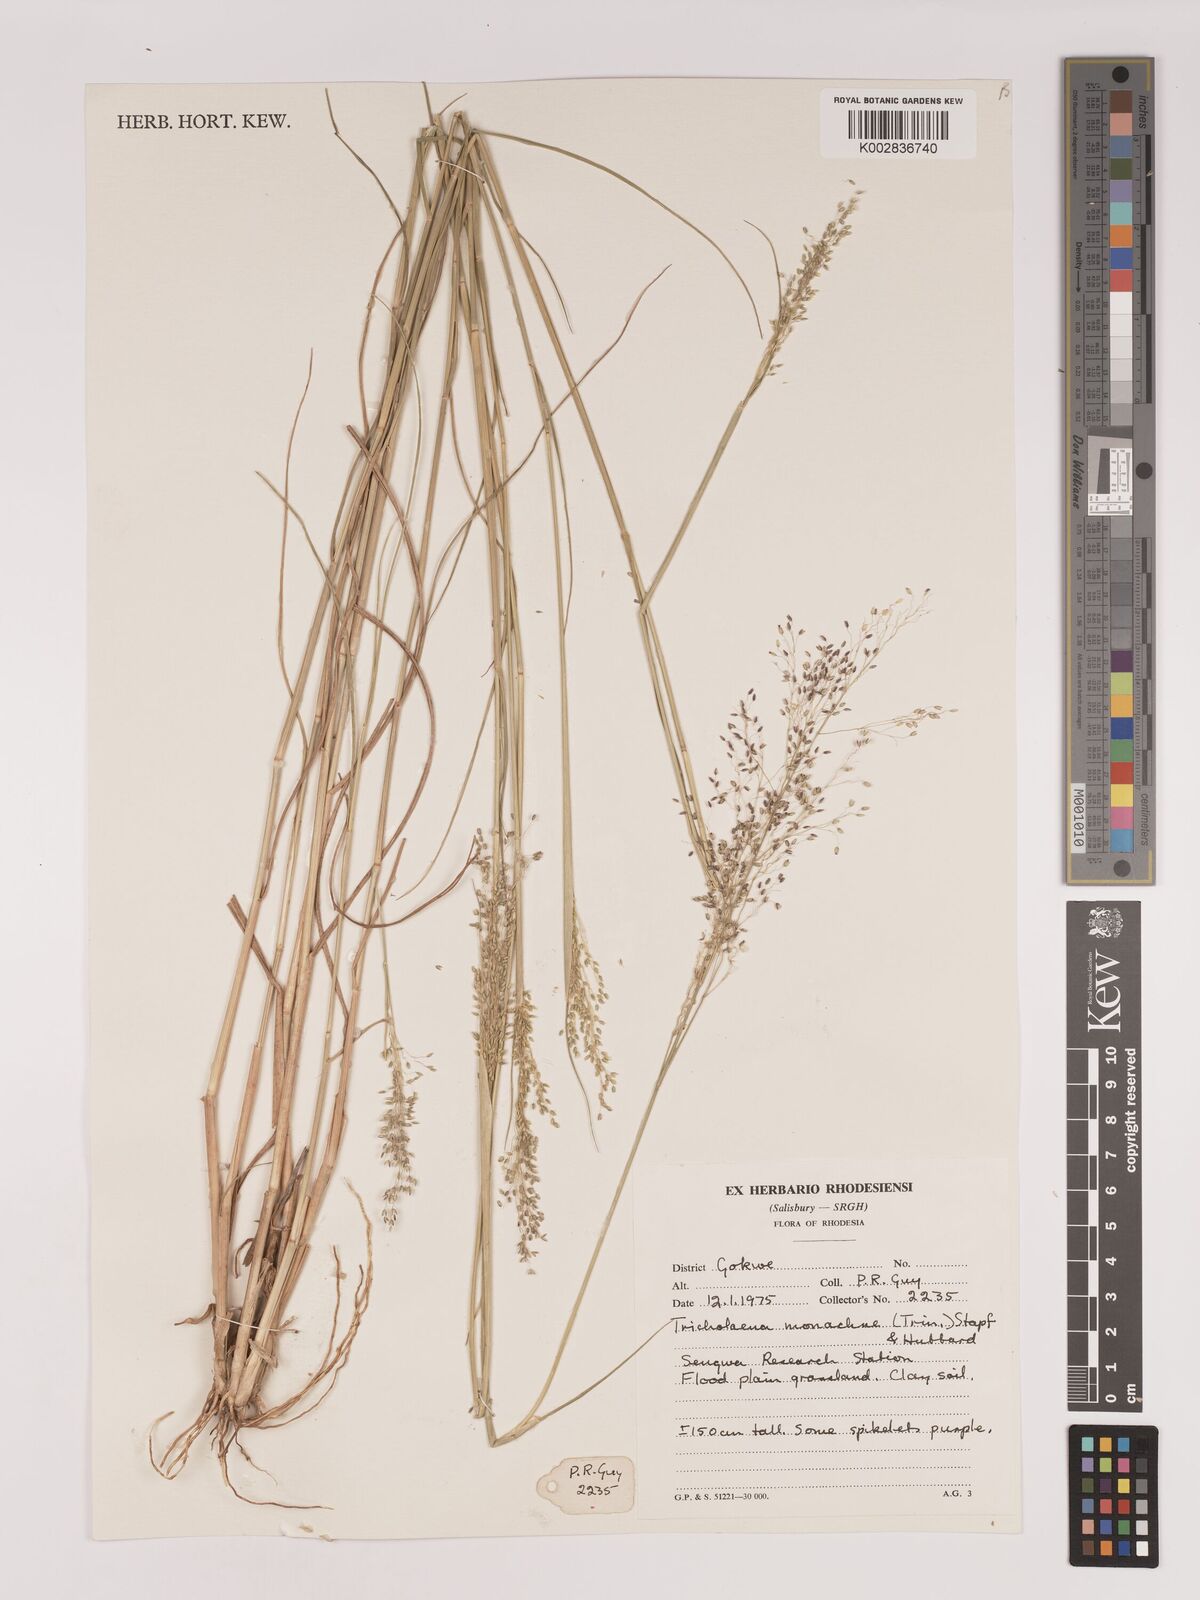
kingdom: Plantae
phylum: Tracheophyta
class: Liliopsida
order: Poales
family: Poaceae
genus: Tricholaena
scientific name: Tricholaena monachne
